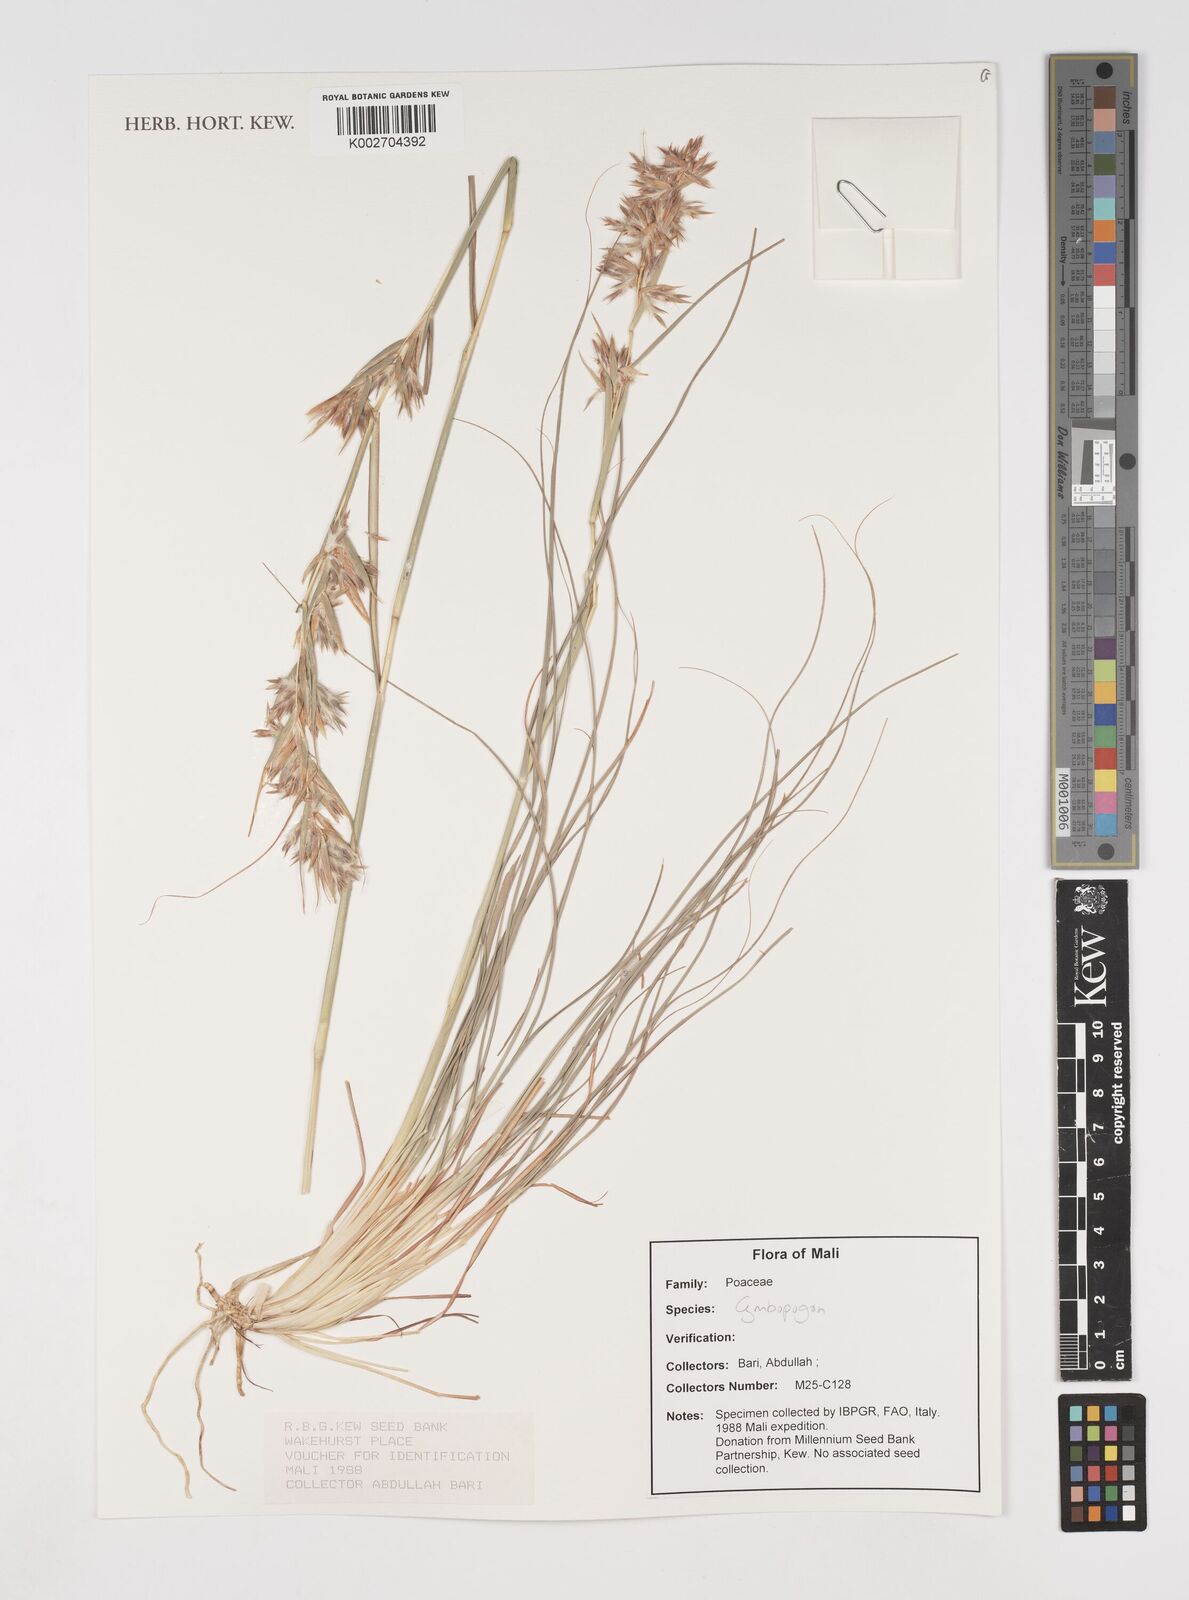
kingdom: Plantae
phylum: Tracheophyta
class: Liliopsida
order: Poales
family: Poaceae
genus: Cymbopogon
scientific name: Cymbopogon
